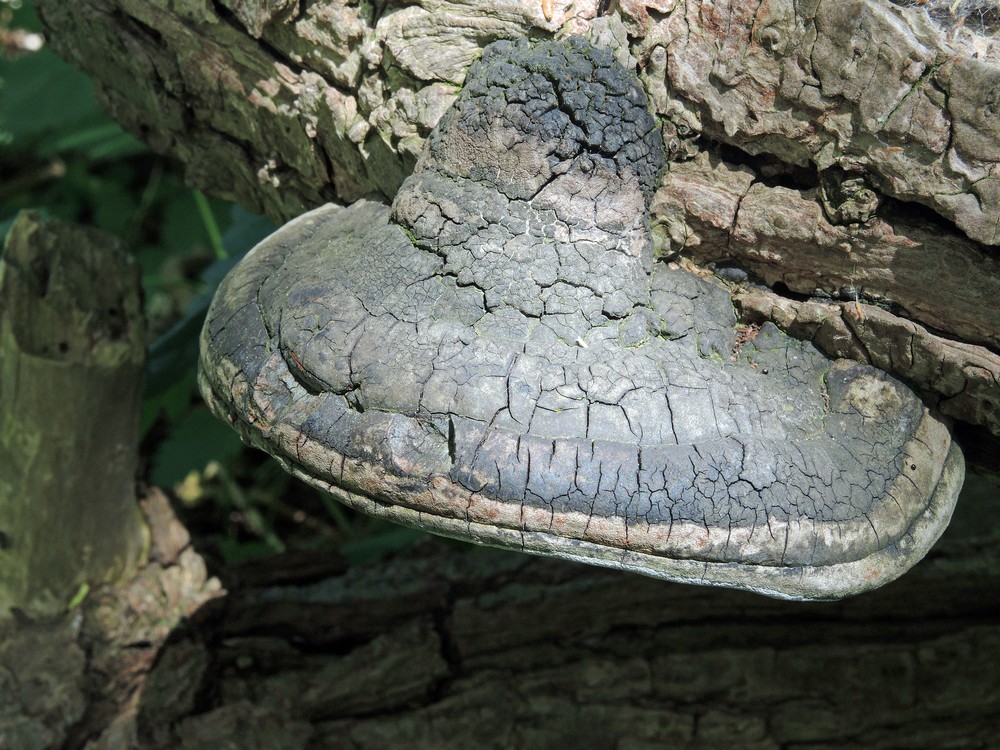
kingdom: Fungi
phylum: Basidiomycota
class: Agaricomycetes
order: Hymenochaetales
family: Hymenochaetaceae
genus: Phellinus
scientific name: Phellinus igniarius
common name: almindelig ildporesvamp
